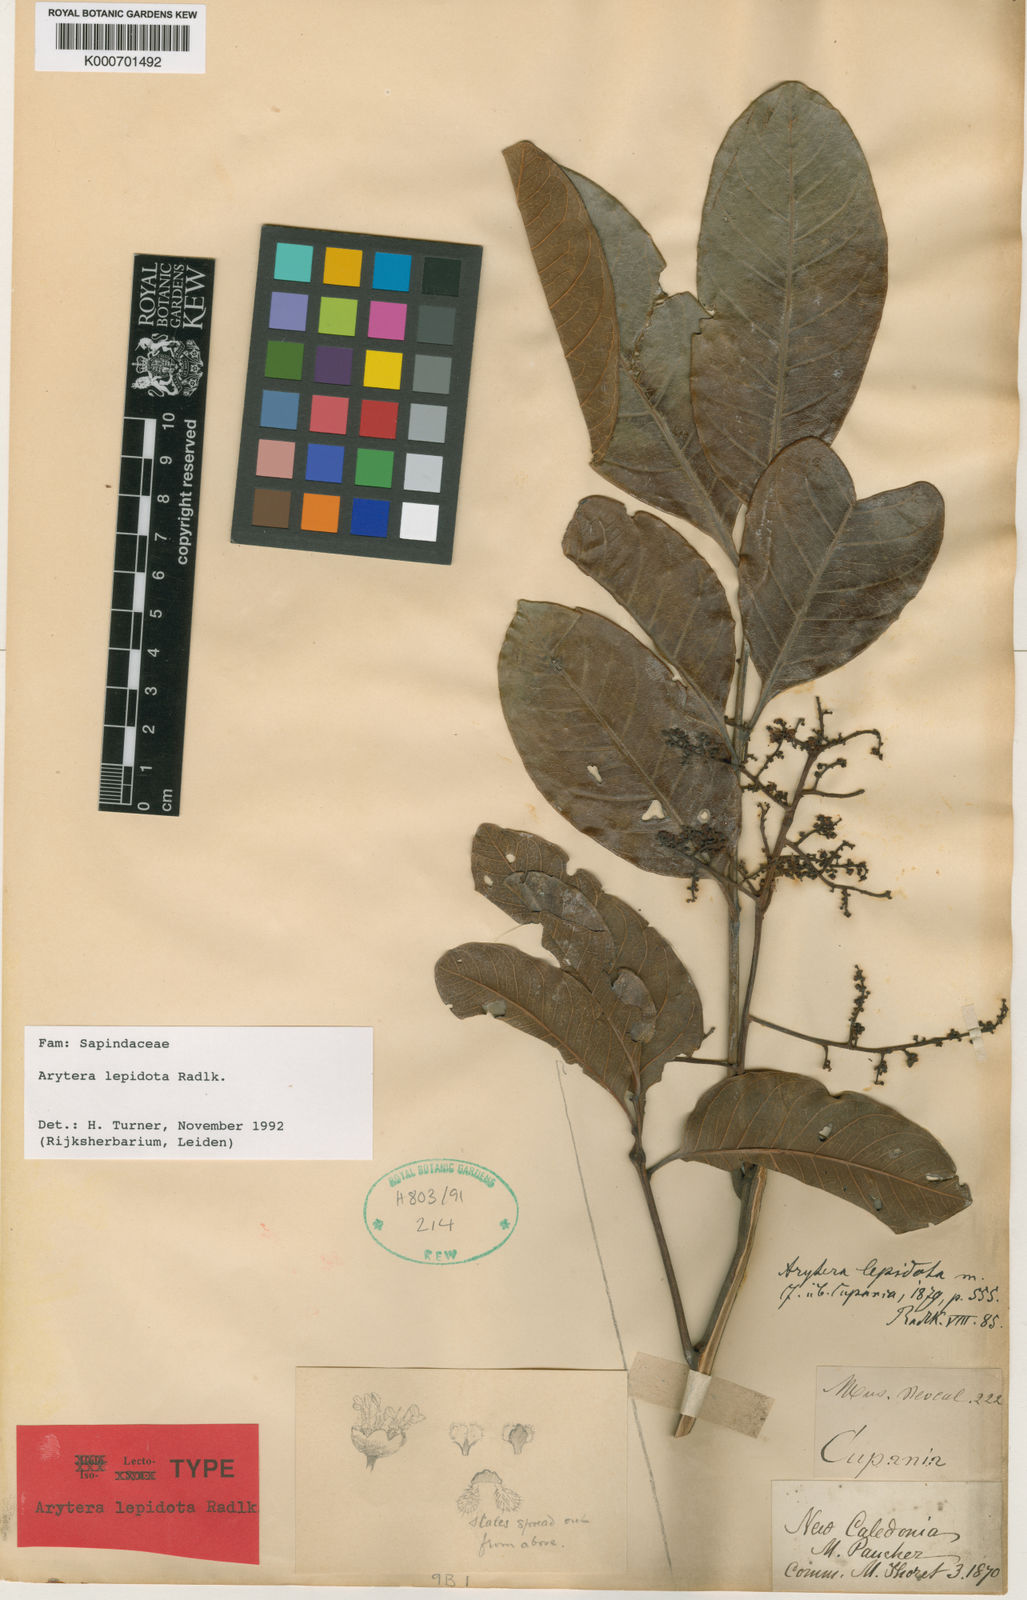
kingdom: Plantae
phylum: Tracheophyta
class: Magnoliopsida
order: Sapindales
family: Sapindaceae
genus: Lepidocupania
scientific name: Lepidocupania lepidota
